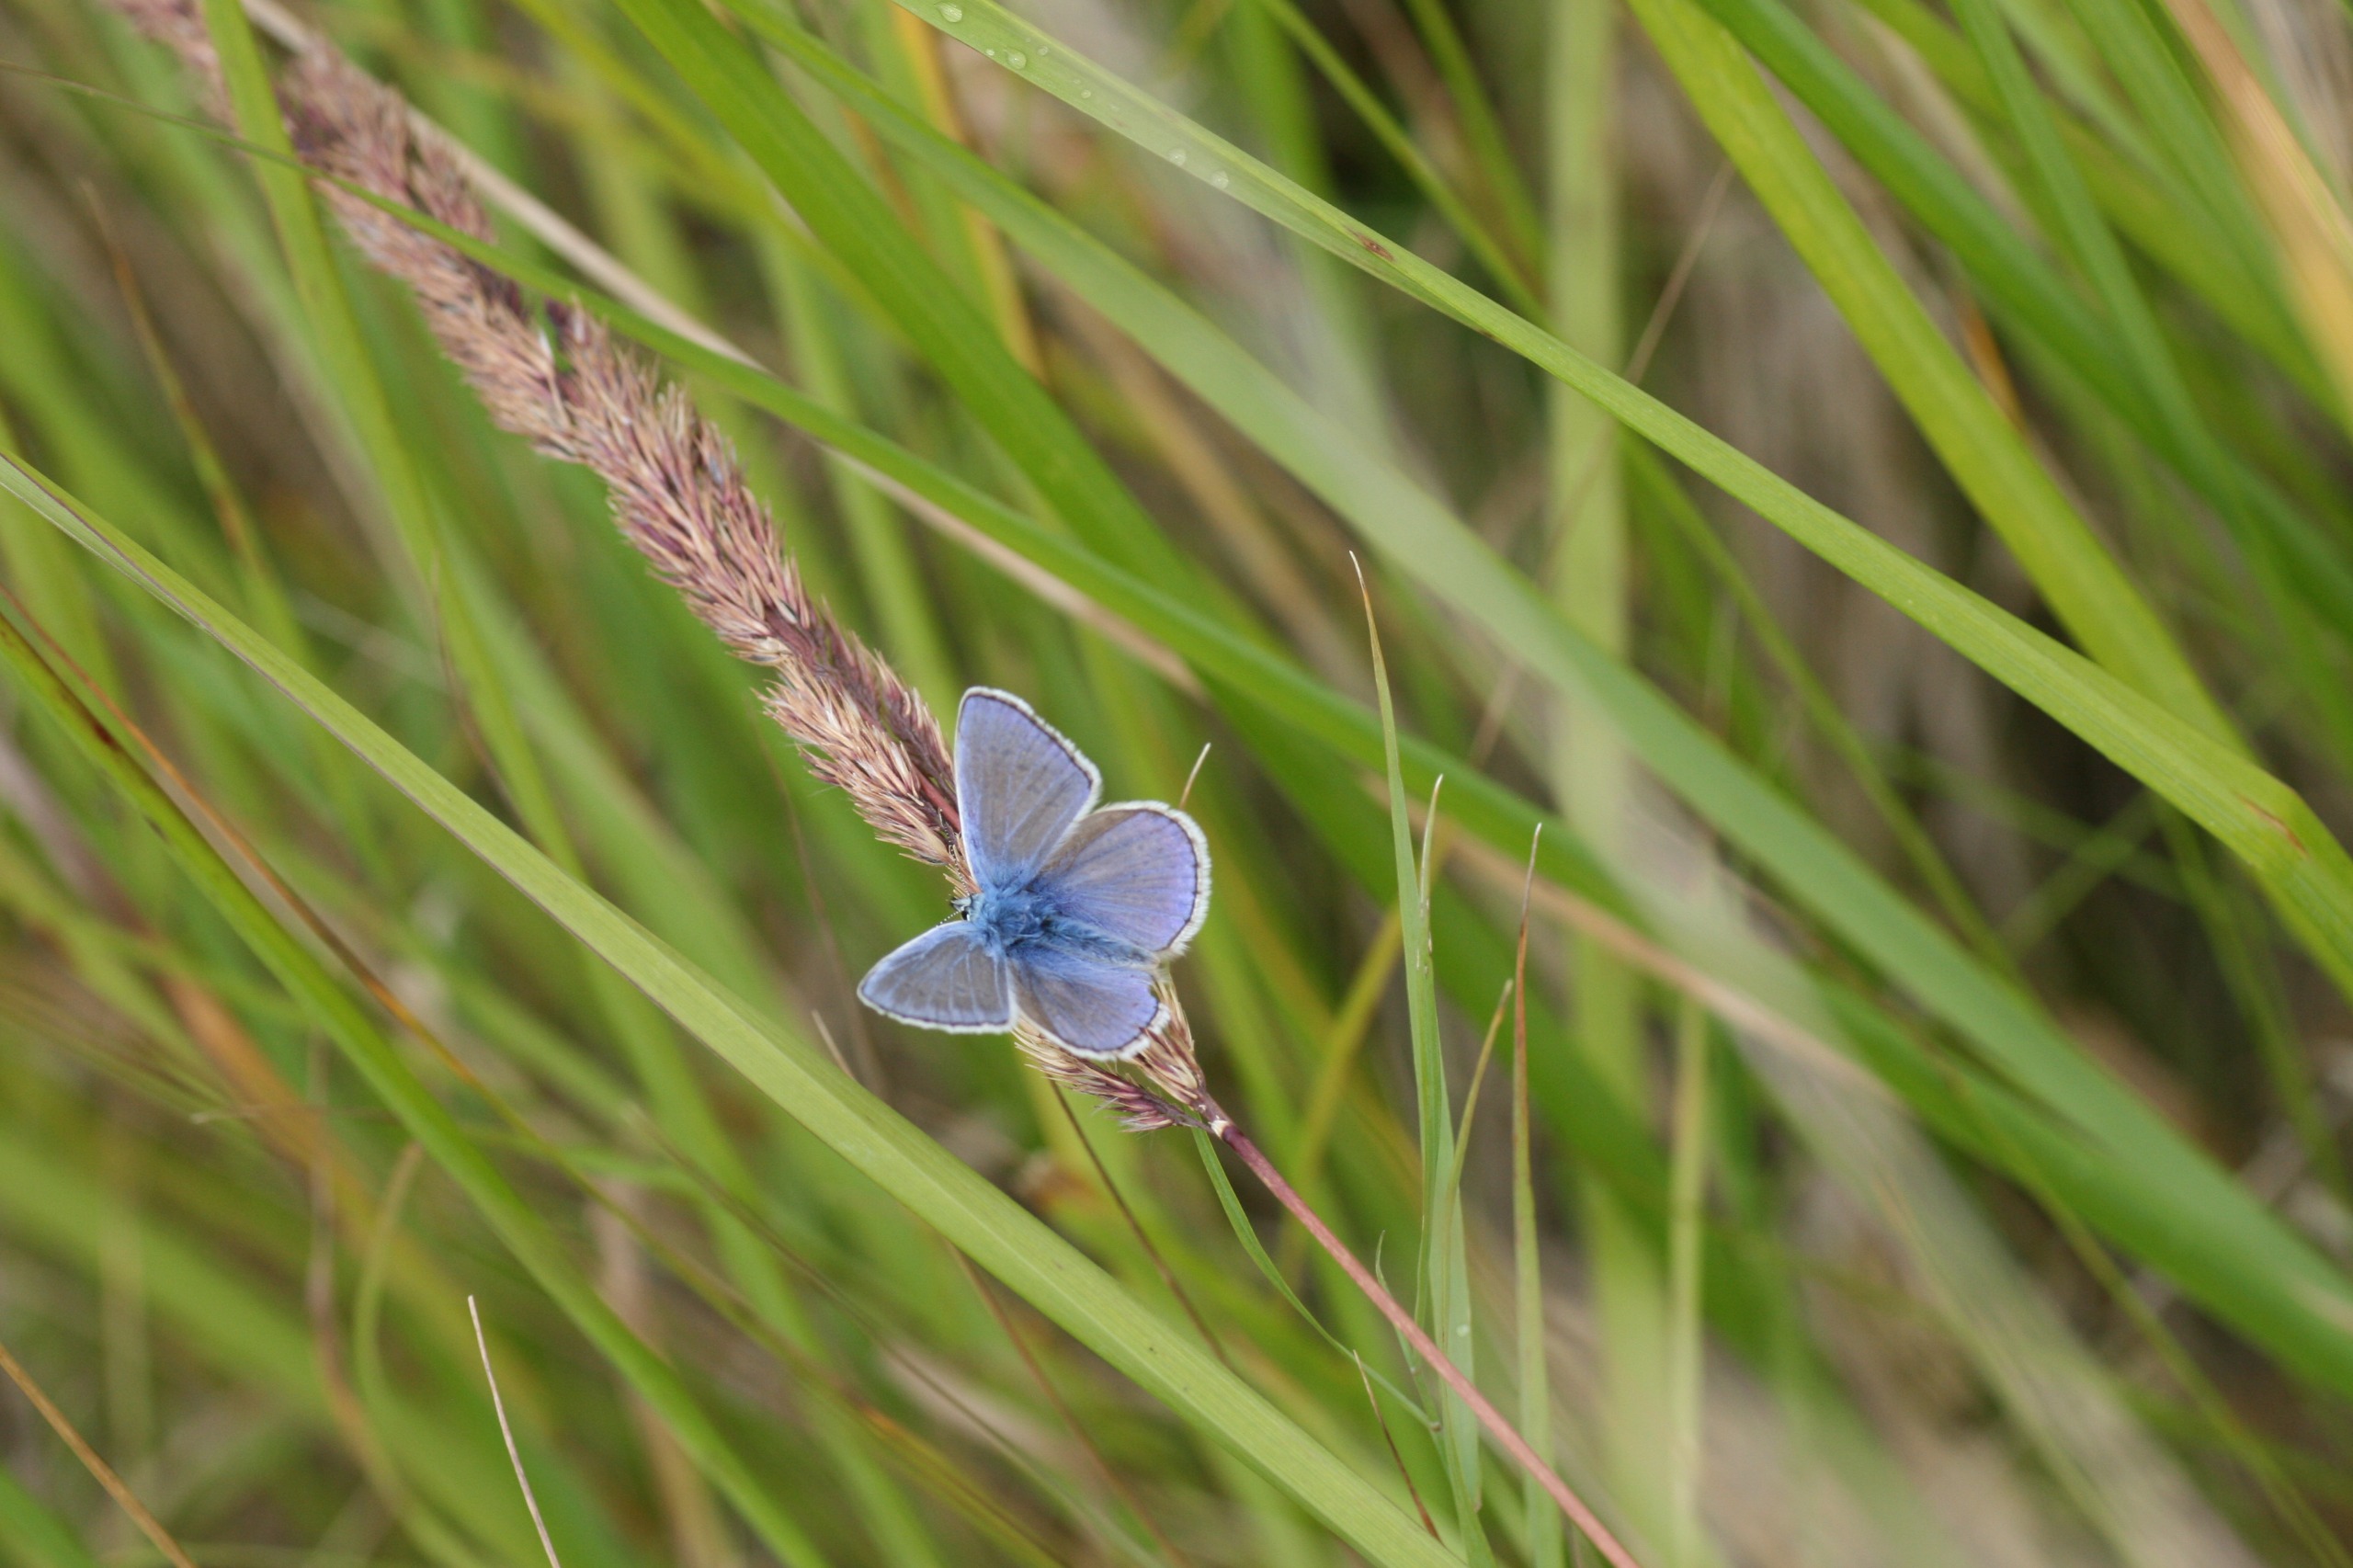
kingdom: Animalia
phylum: Arthropoda
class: Insecta
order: Lepidoptera
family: Lycaenidae
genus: Polyommatus
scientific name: Polyommatus icarus
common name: Almindelig blåfugl
